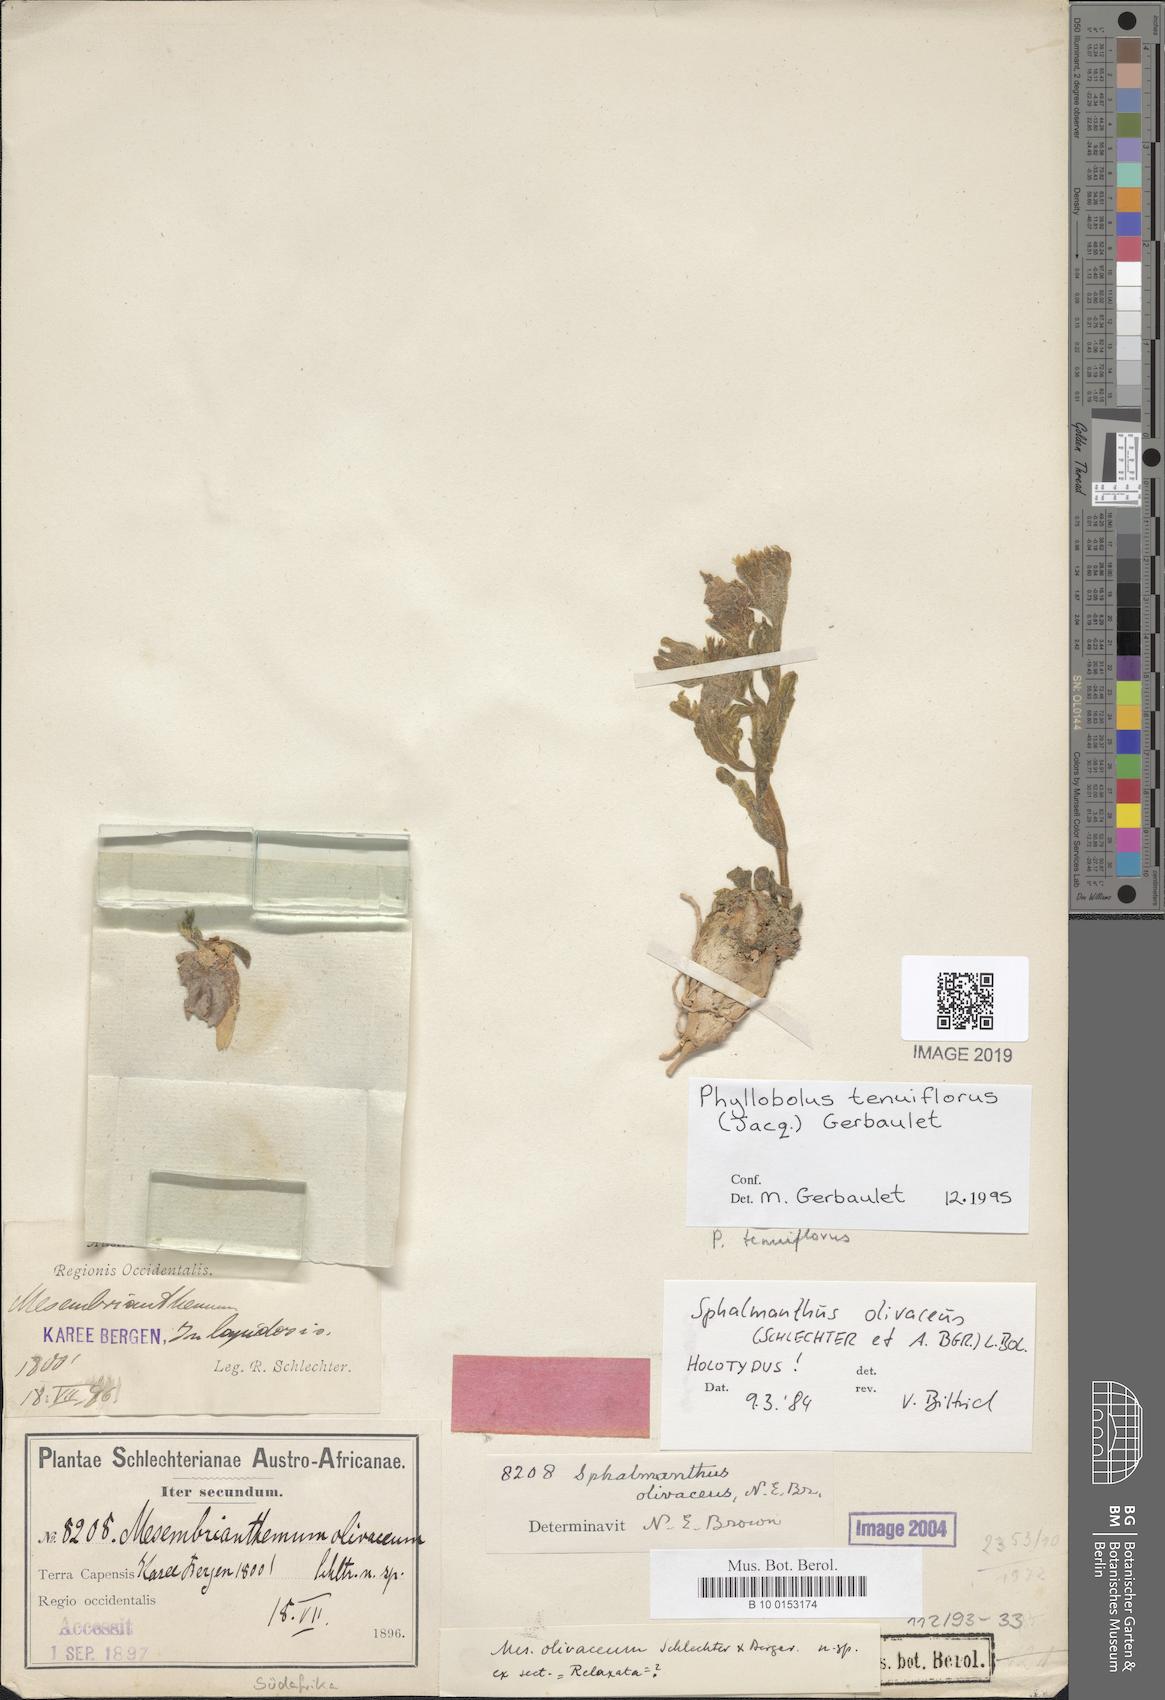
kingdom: Plantae
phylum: Tracheophyta
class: Magnoliopsida
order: Caryophyllales
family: Aizoaceae
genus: Mesembryanthemum
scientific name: Mesembryanthemum tenuiflorum
